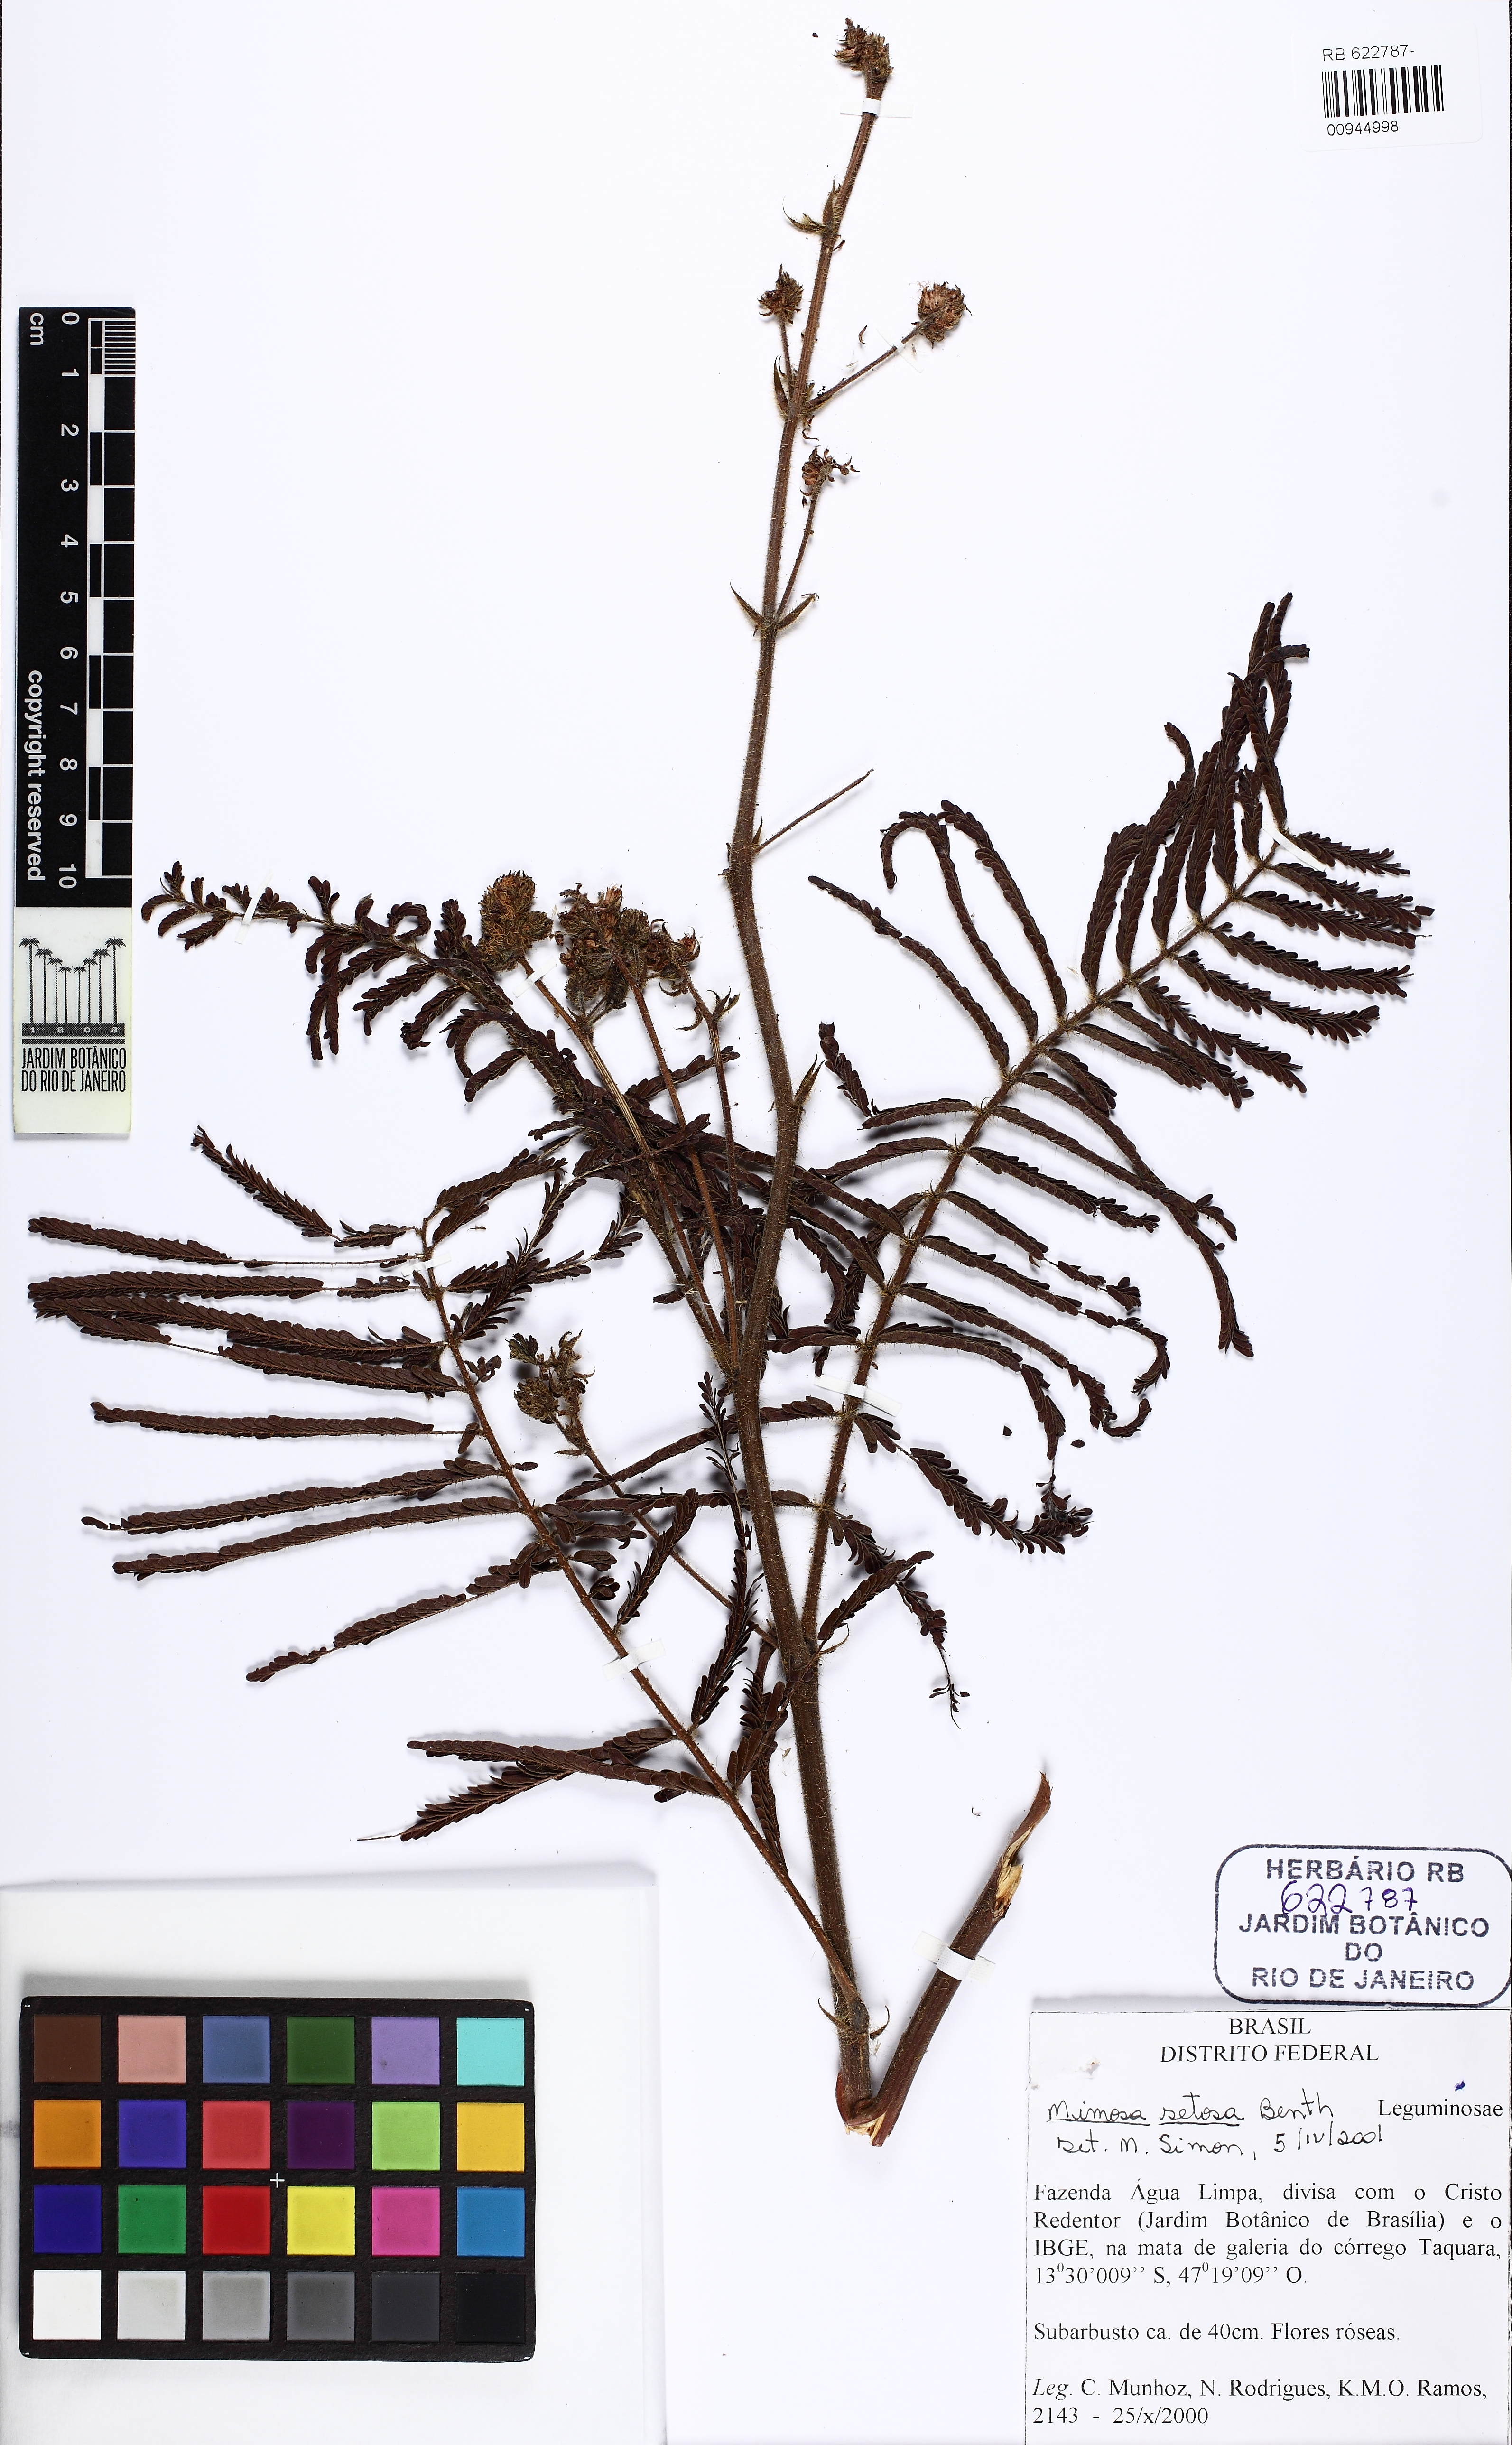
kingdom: Plantae
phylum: Tracheophyta
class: Magnoliopsida
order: Fabales
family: Fabaceae
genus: Mimosa
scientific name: Mimosa setosa
